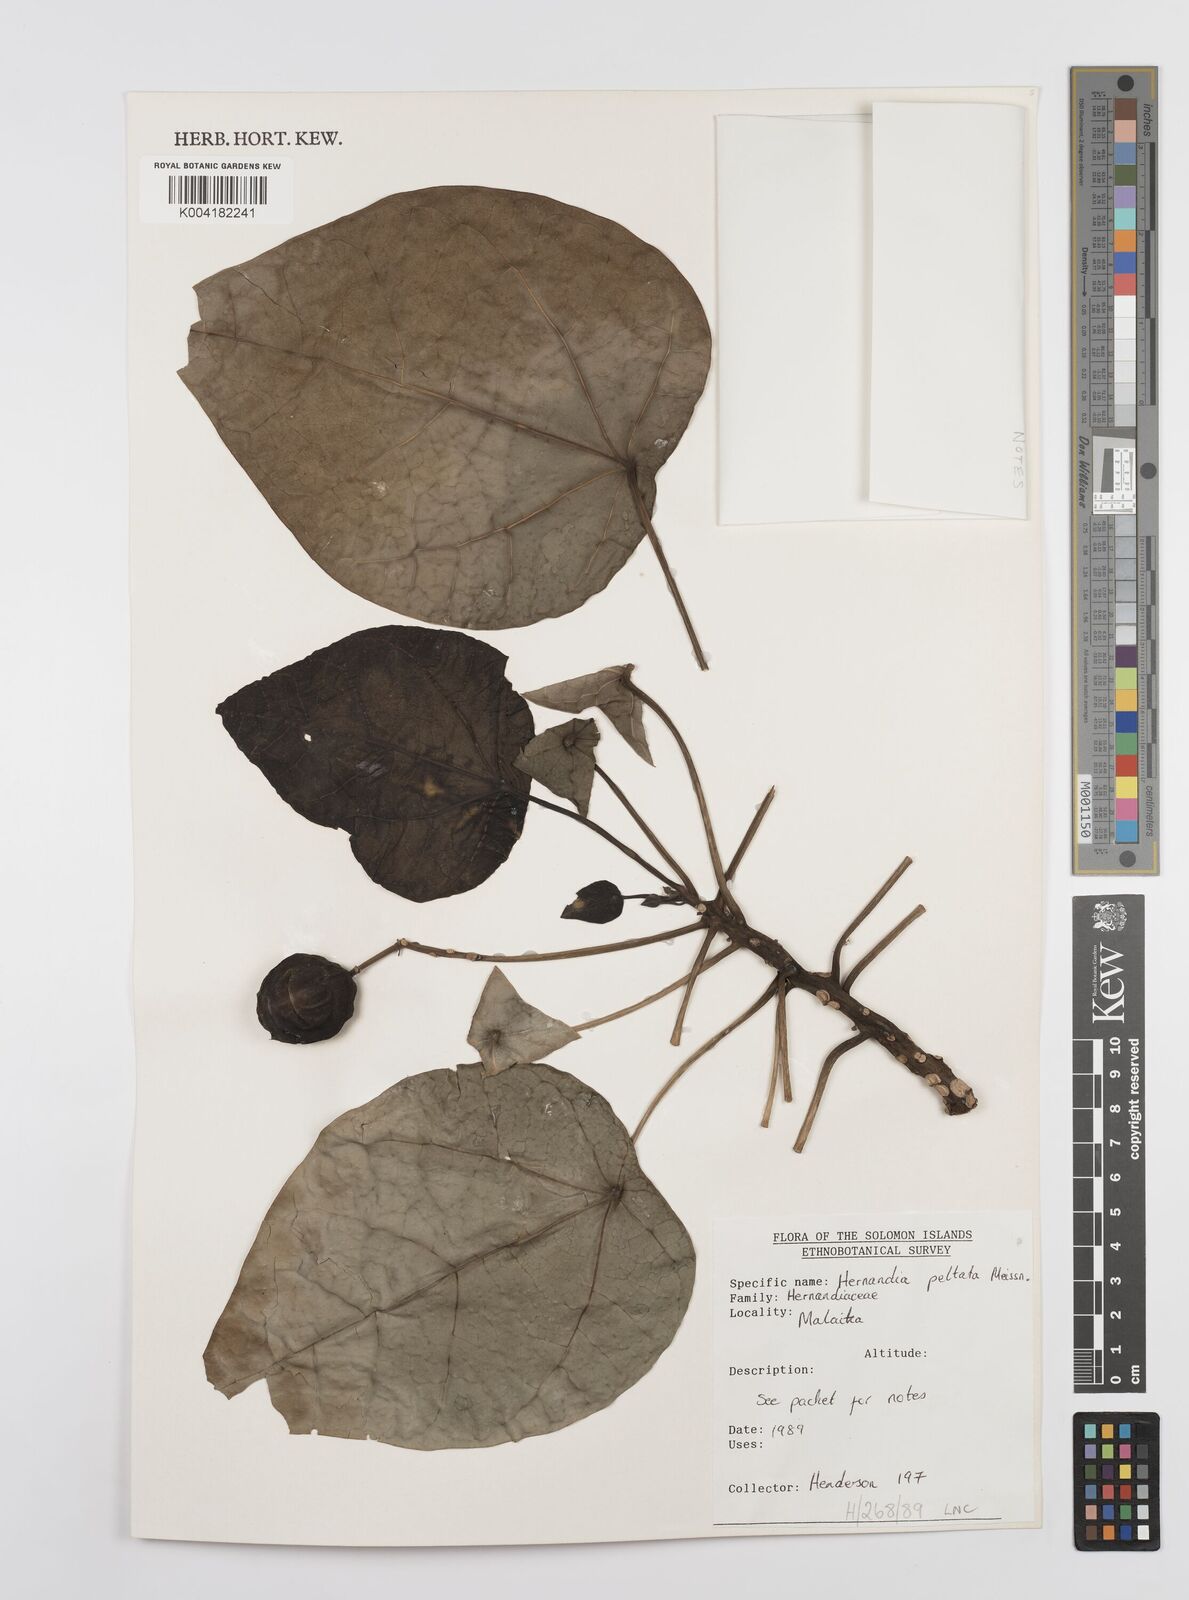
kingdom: Plantae
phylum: Tracheophyta
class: Magnoliopsida
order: Laurales
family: Hernandiaceae
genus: Hernandia
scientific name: Hernandia nymphaeifolia
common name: Sea hearse
